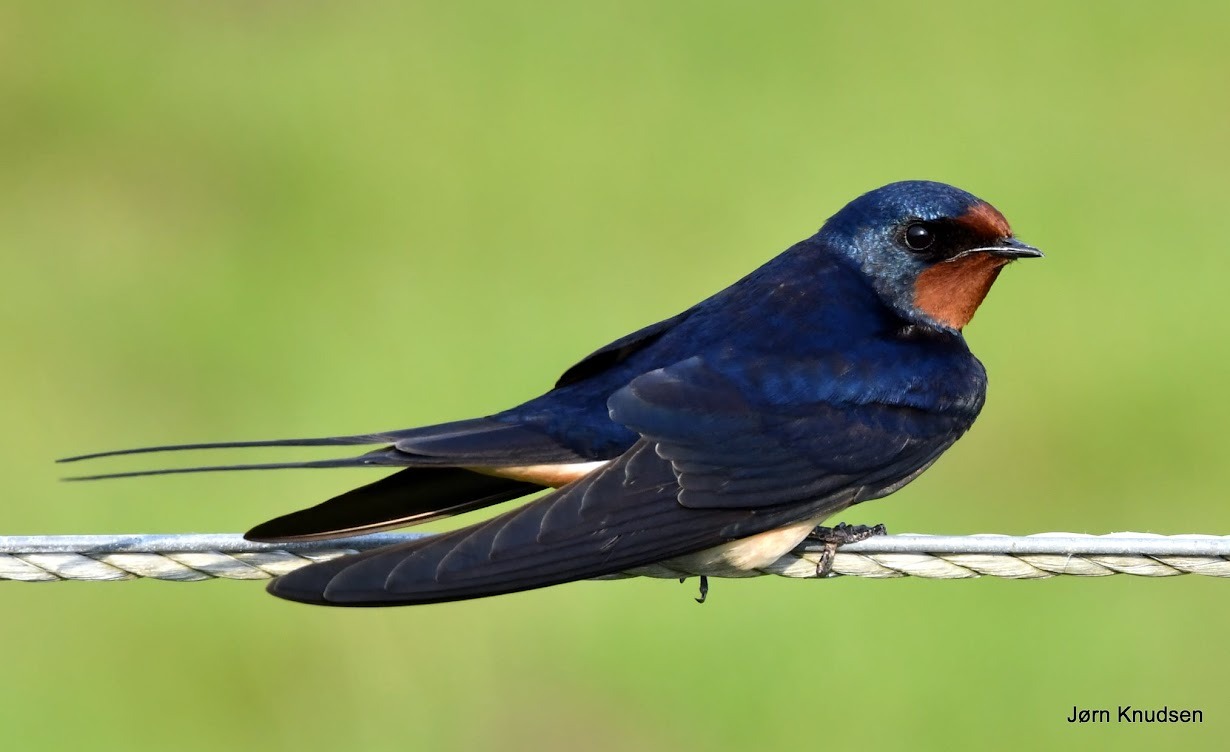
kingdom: Animalia
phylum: Chordata
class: Aves
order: Passeriformes
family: Hirundinidae
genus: Hirundo
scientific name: Hirundo rustica
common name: Landsvale
